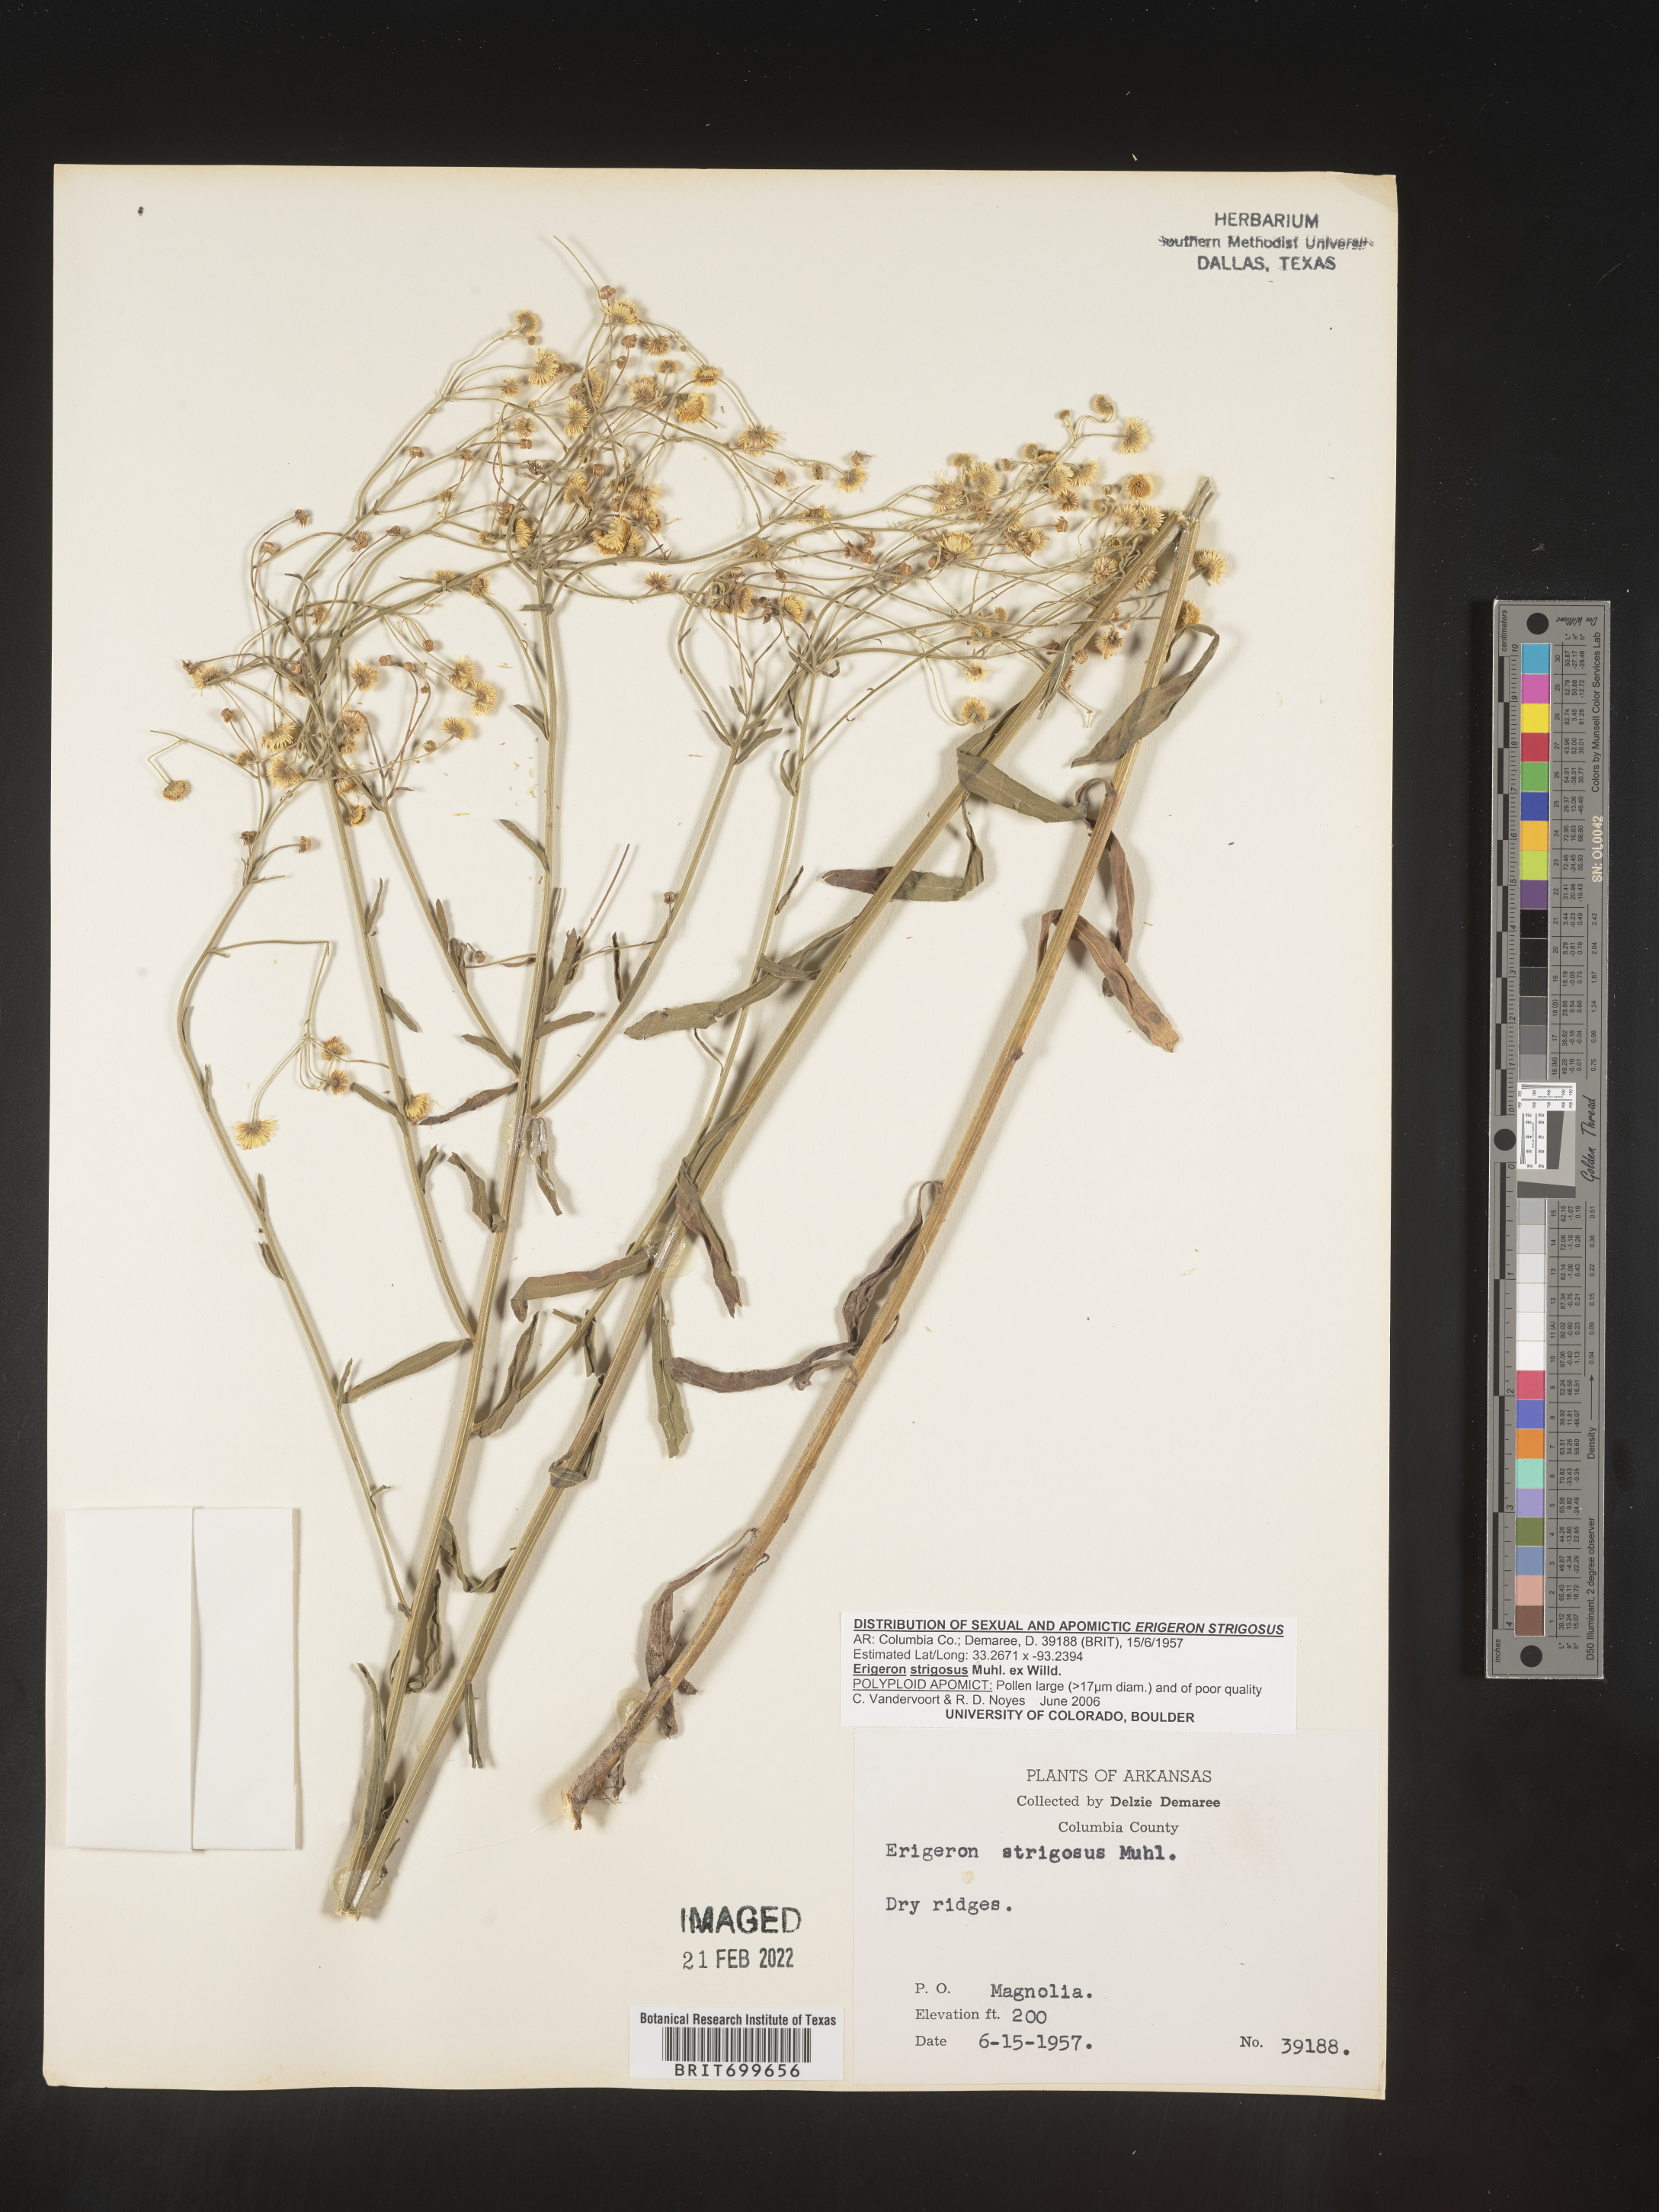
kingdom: Plantae
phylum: Tracheophyta
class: Magnoliopsida
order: Asterales
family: Asteraceae
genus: Erigeron
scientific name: Erigeron strigosus
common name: Common eastern fleabane
